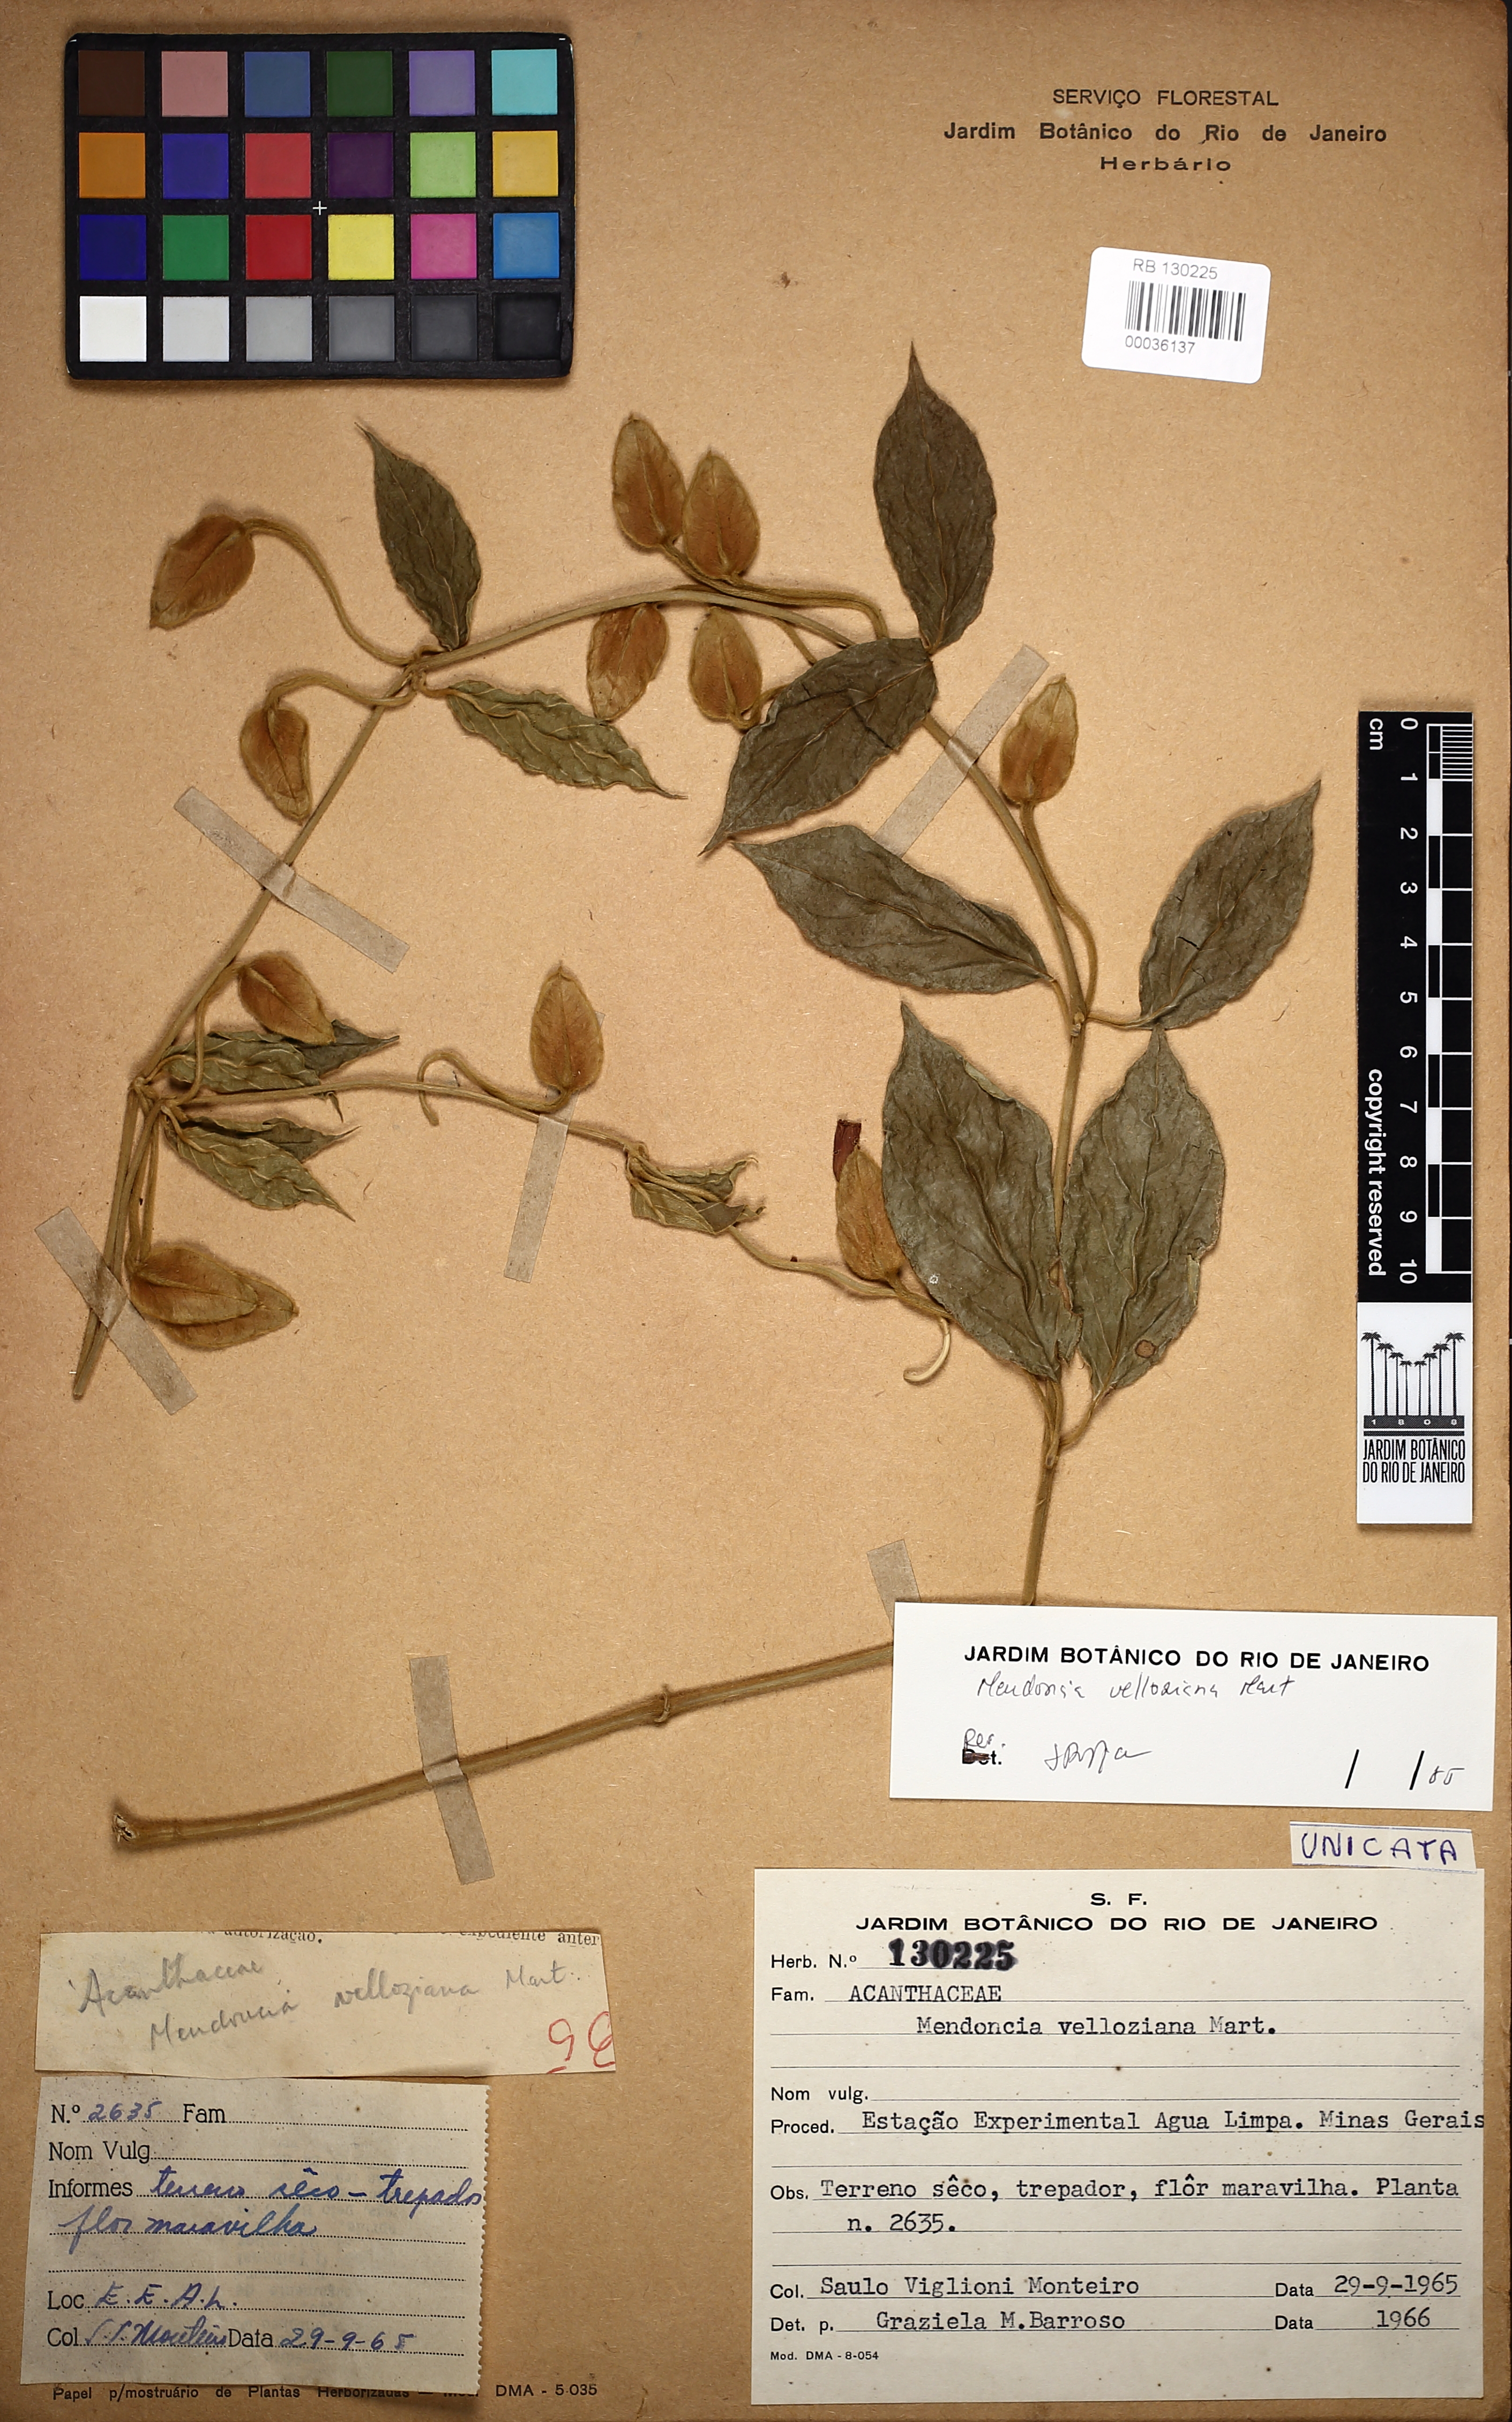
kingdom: Plantae
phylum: Tracheophyta
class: Magnoliopsida
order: Lamiales
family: Acanthaceae
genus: Mendoncia
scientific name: Mendoncia velloziana
